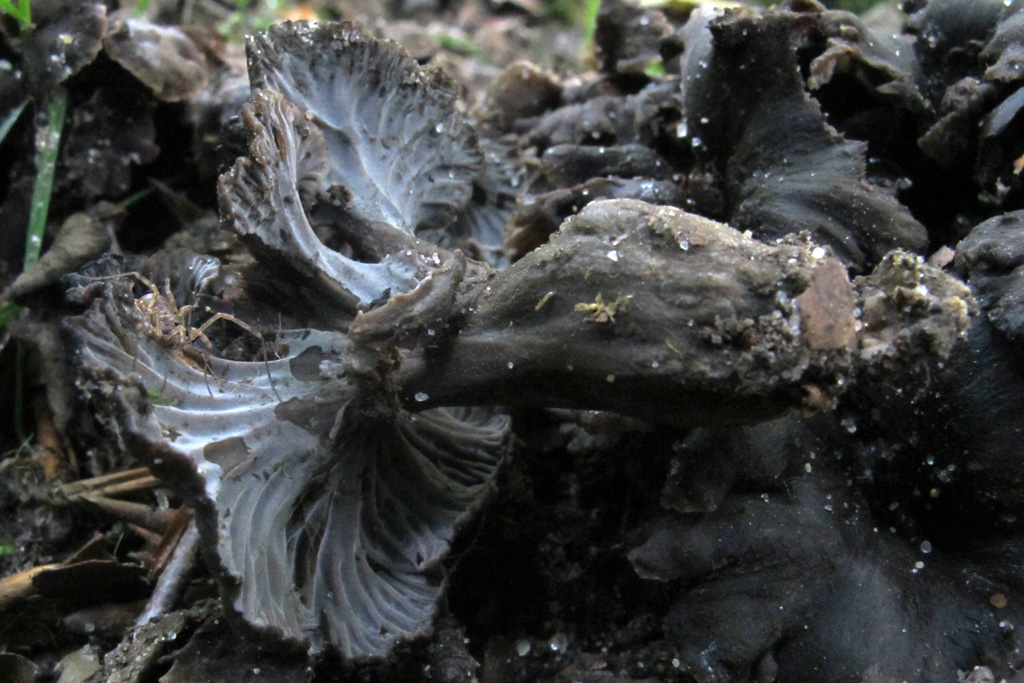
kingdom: Fungi
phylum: Basidiomycota
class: Agaricomycetes
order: Cantharellales
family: Hydnaceae
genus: Cantharellus
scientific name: Cantharellus cinereus
